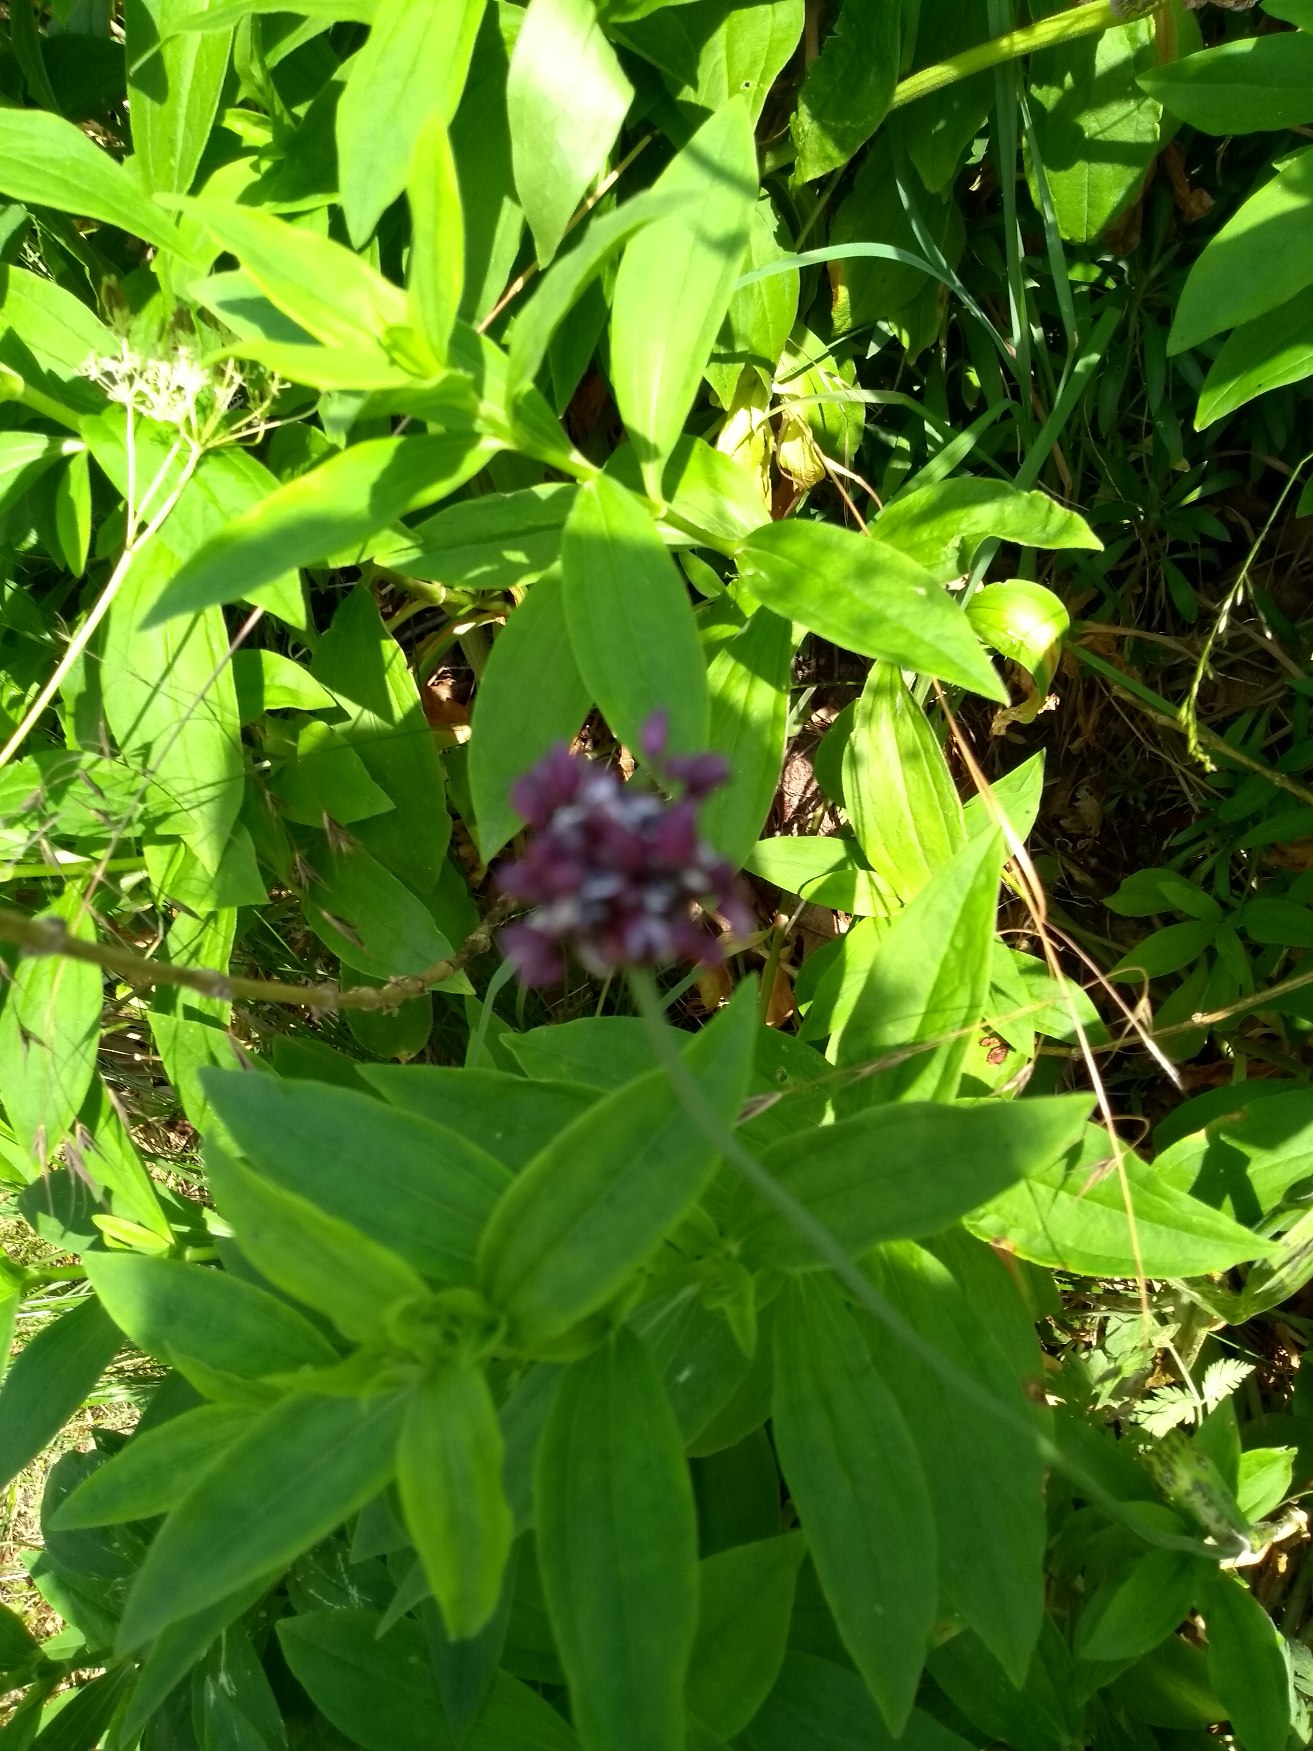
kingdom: Plantae
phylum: Tracheophyta
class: Liliopsida
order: Asparagales
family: Amaryllidaceae
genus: Allium
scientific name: Allium scorodoprasum
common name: Skov-løg
